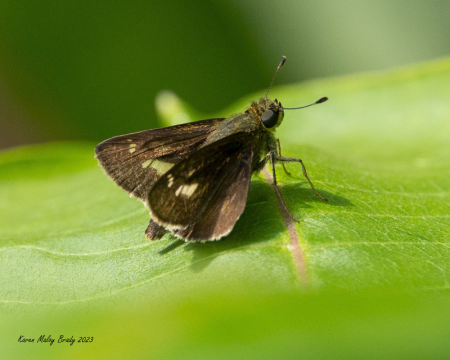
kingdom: Animalia
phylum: Arthropoda
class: Insecta
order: Lepidoptera
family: Hesperiidae
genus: Vernia
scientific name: Vernia verna
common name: Little Glassywing
